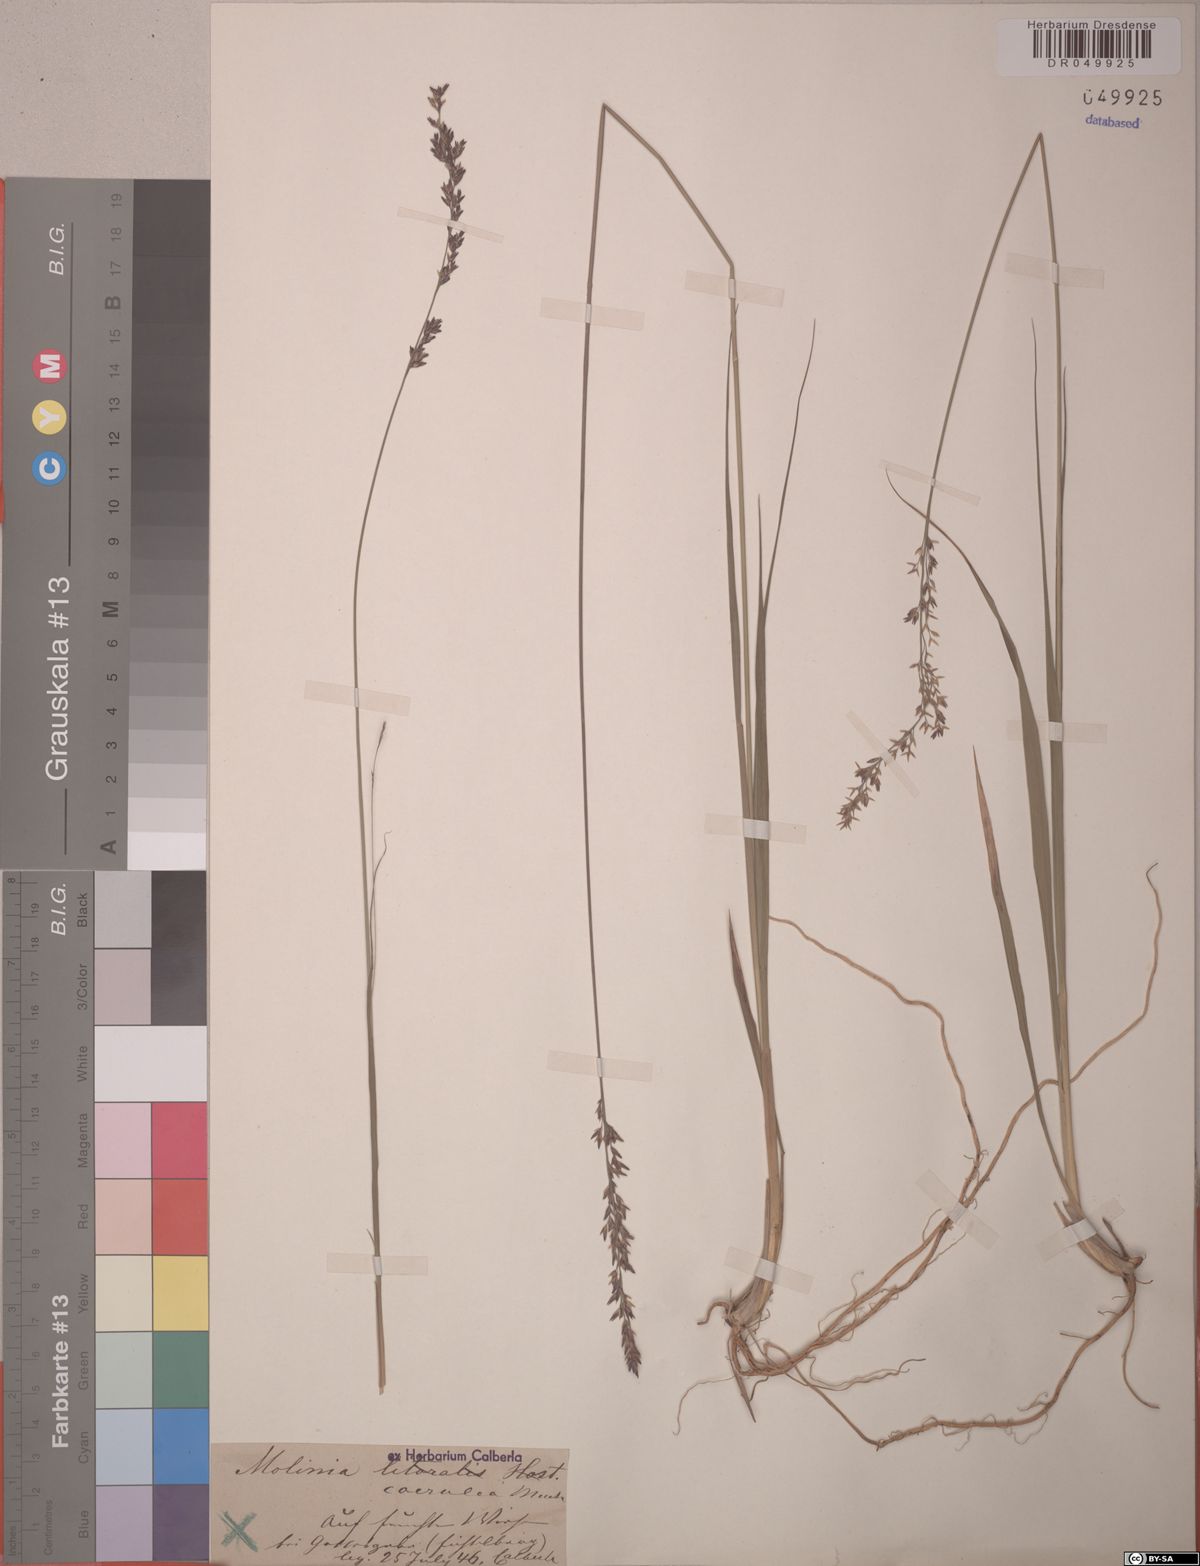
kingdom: Plantae
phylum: Tracheophyta
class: Liliopsida
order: Poales
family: Poaceae
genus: Molinia
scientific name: Molinia caerulea
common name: Purple moor-grass
